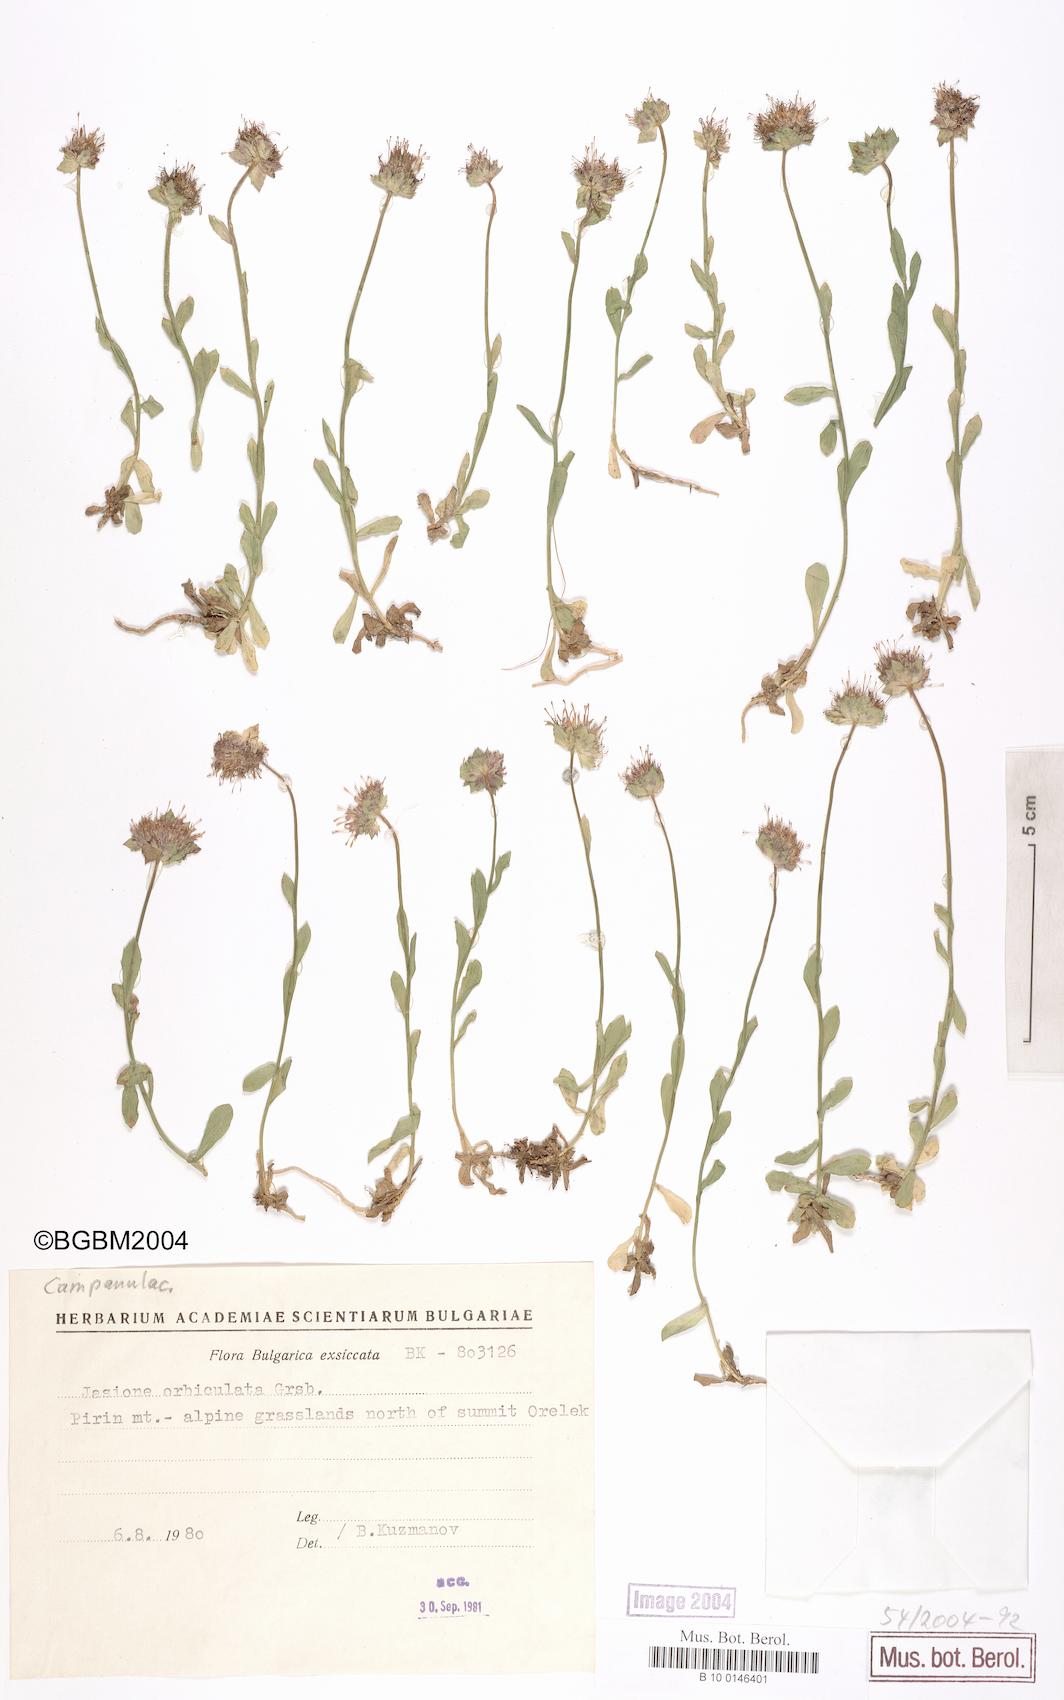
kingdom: Plantae
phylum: Tracheophyta
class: Magnoliopsida
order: Asterales
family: Campanulaceae
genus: Jasione
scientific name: Jasione orbiculata
